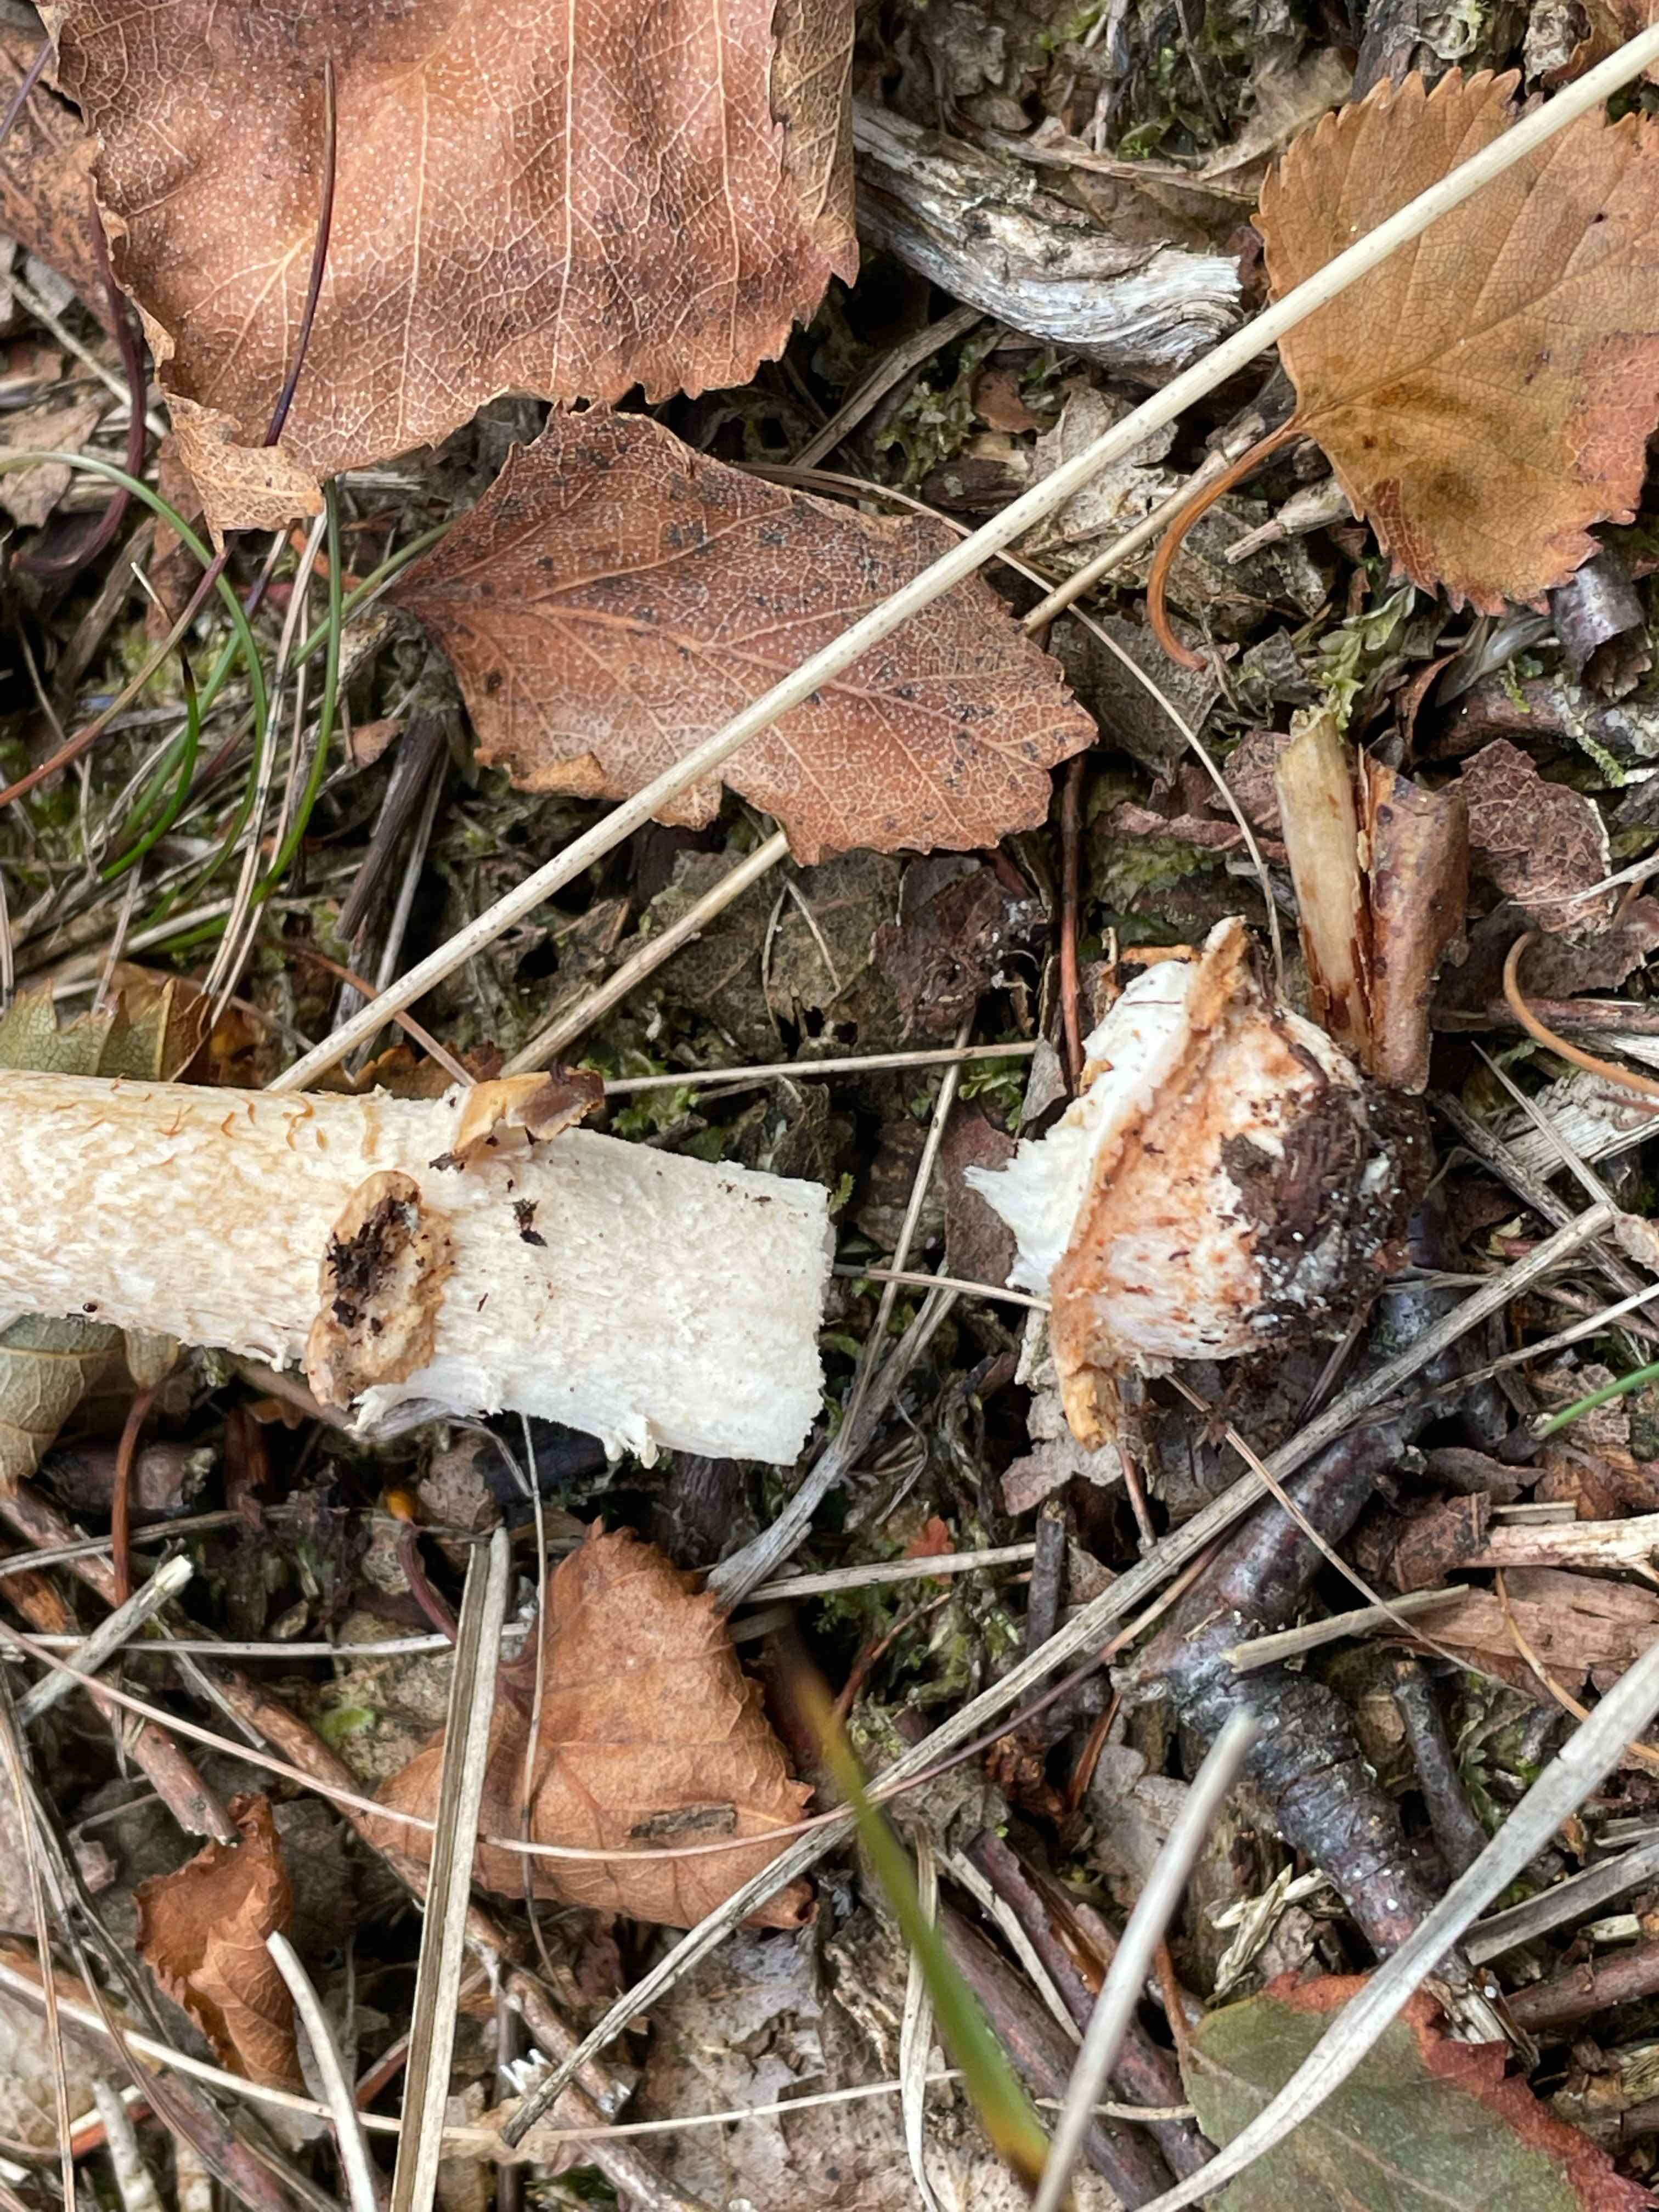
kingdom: Fungi
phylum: Basidiomycota
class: Agaricomycetes
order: Agaricales
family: Amanitaceae
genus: Amanita
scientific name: Amanita fulva
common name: brun kam-fluesvamp
